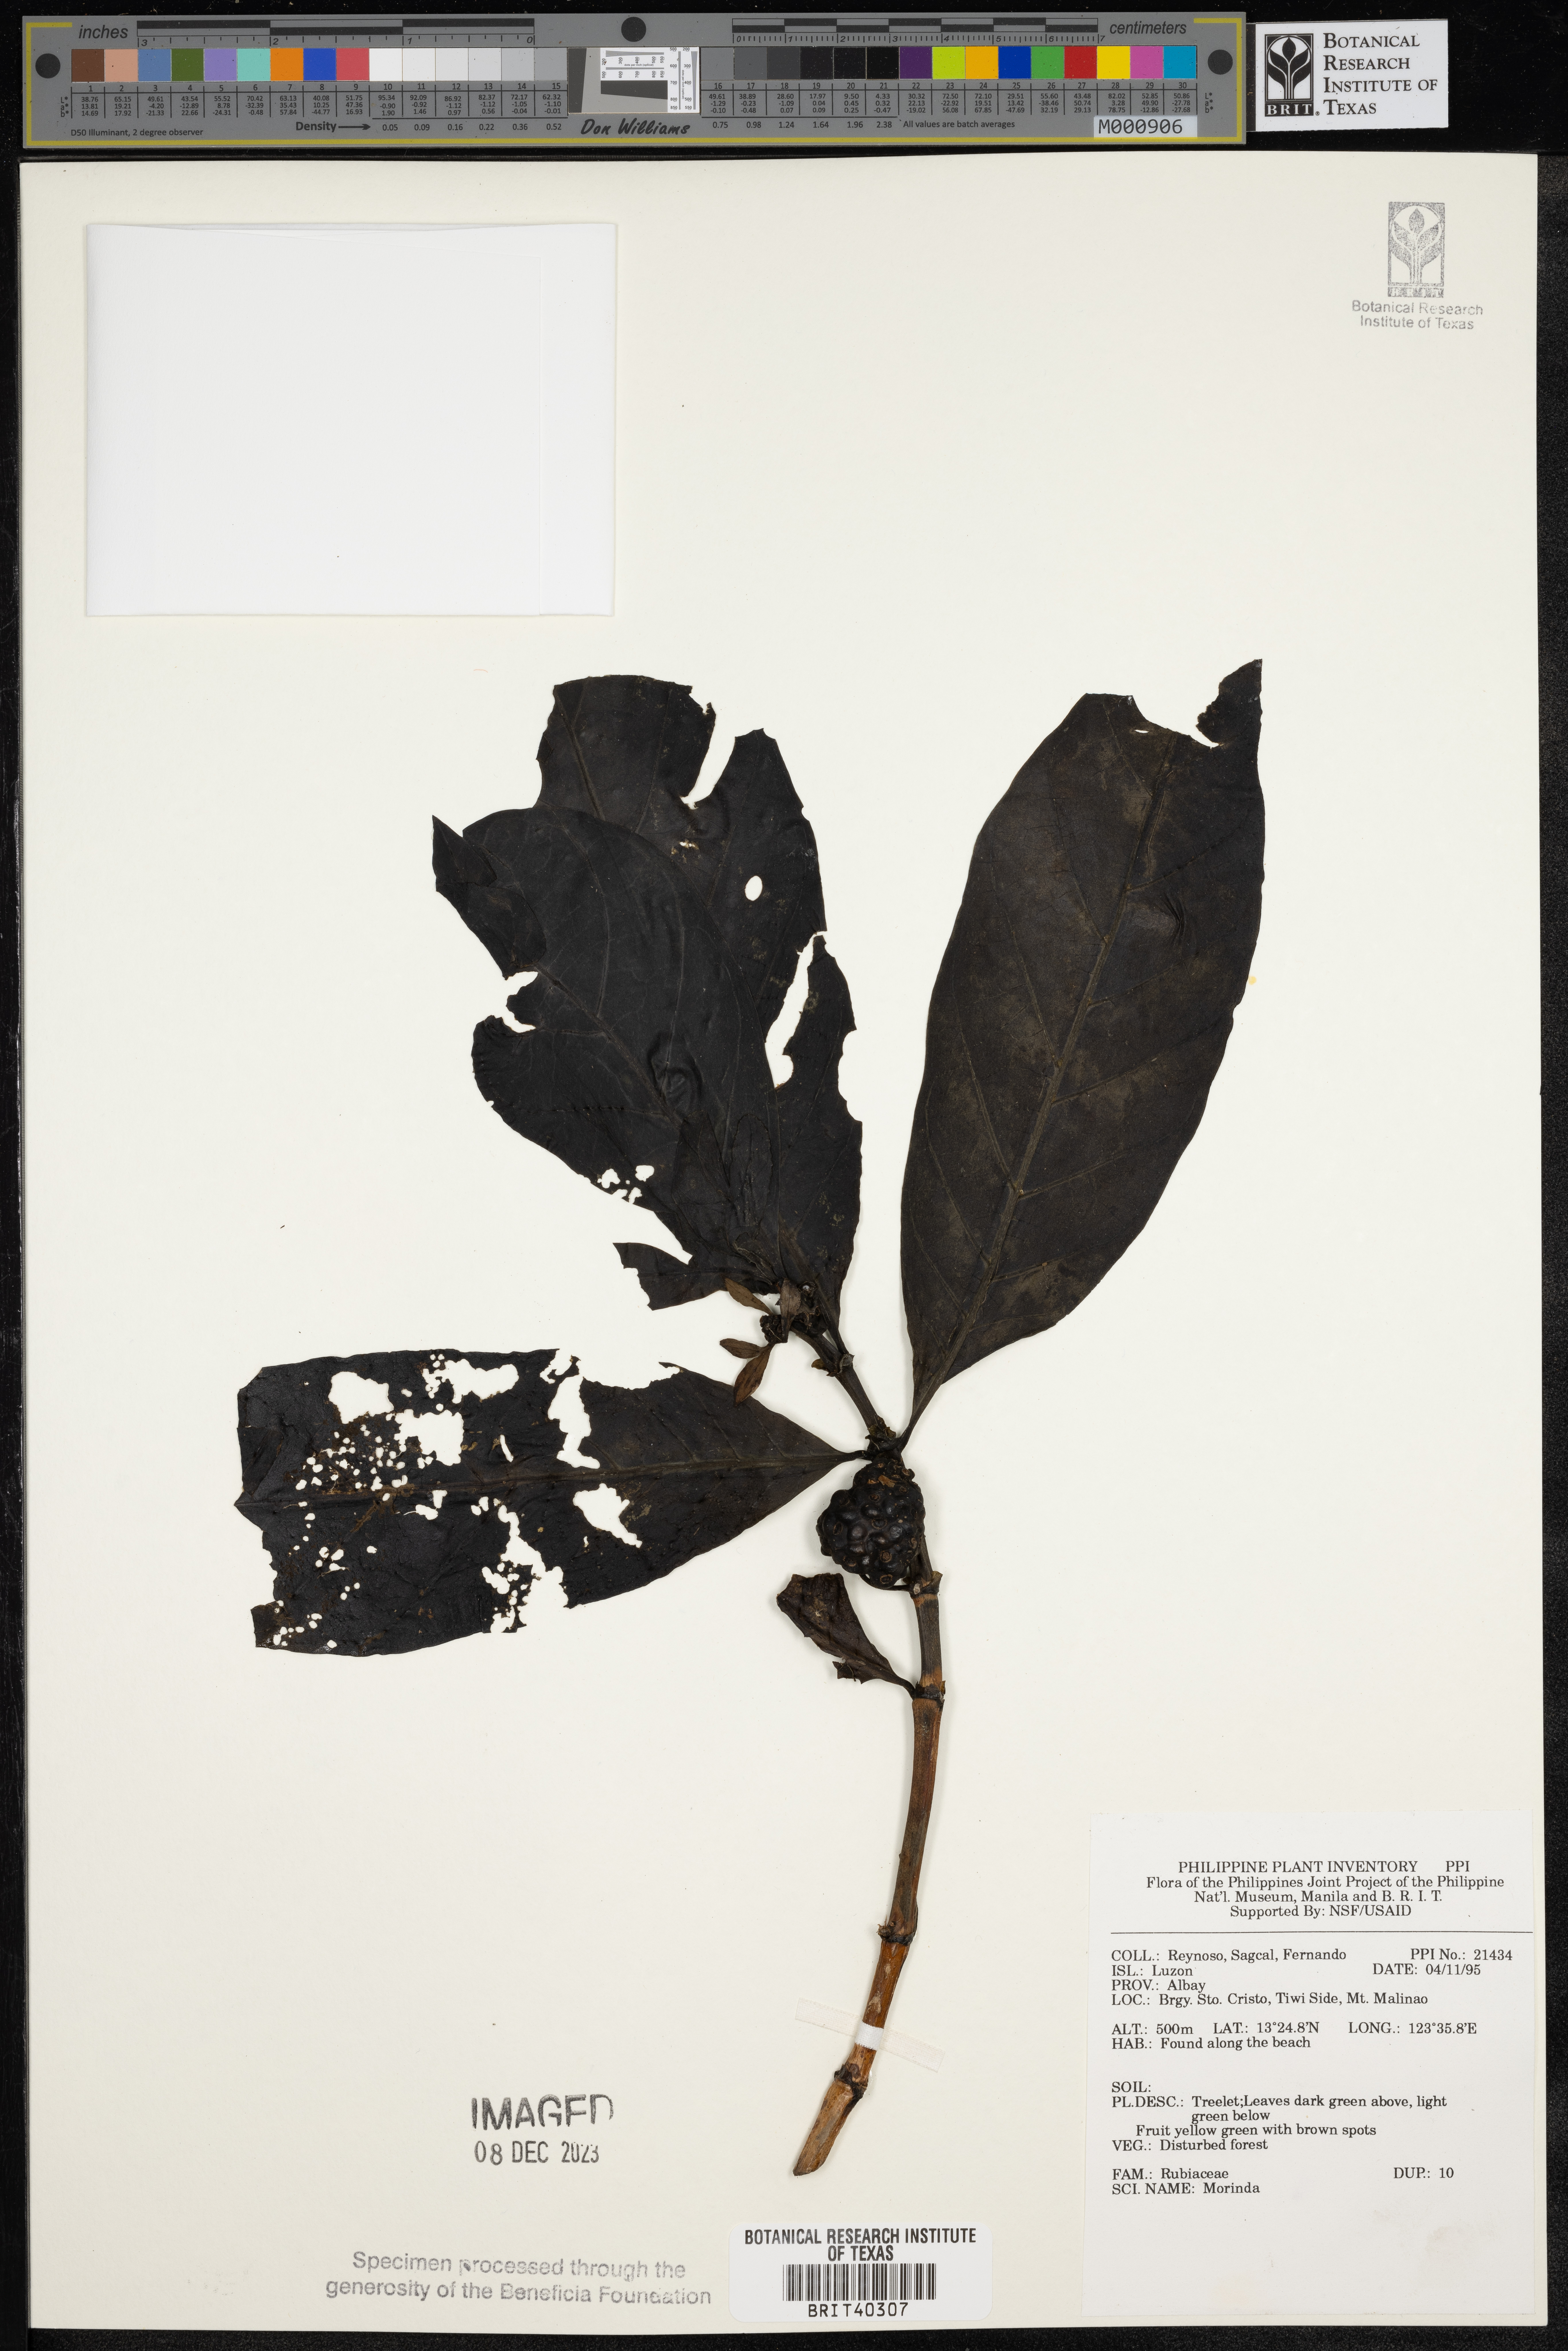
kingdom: Plantae
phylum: Tracheophyta
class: Magnoliopsida
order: Gentianales
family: Rubiaceae
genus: Morinda
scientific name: Morinda
